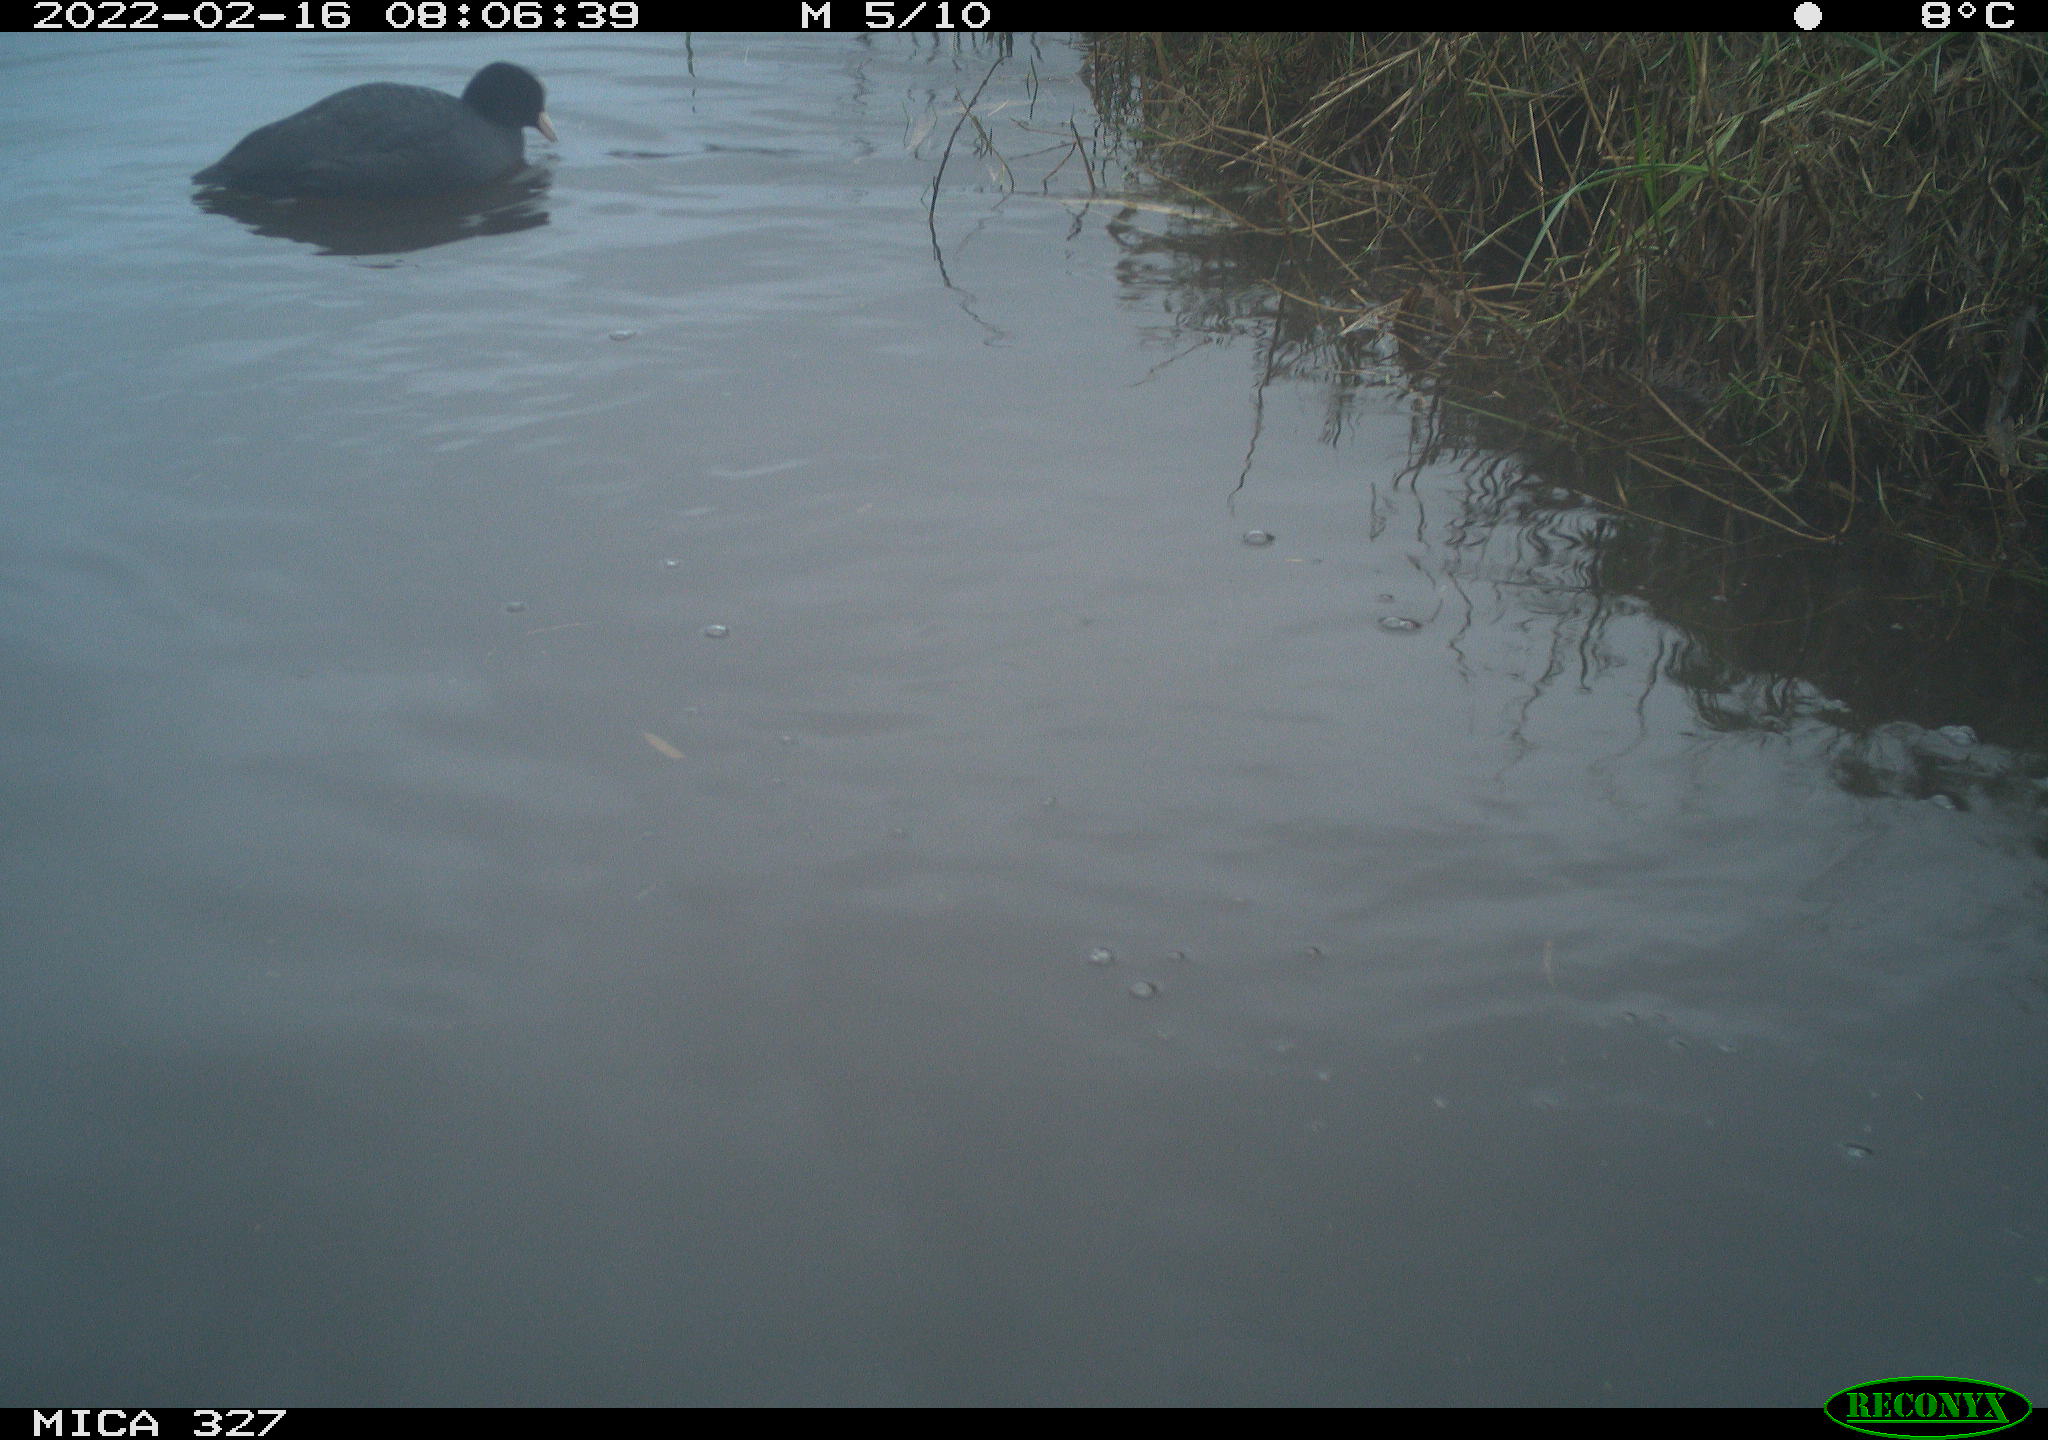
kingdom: Animalia
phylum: Chordata
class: Aves
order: Gruiformes
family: Rallidae
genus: Fulica
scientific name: Fulica atra
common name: Eurasian coot
